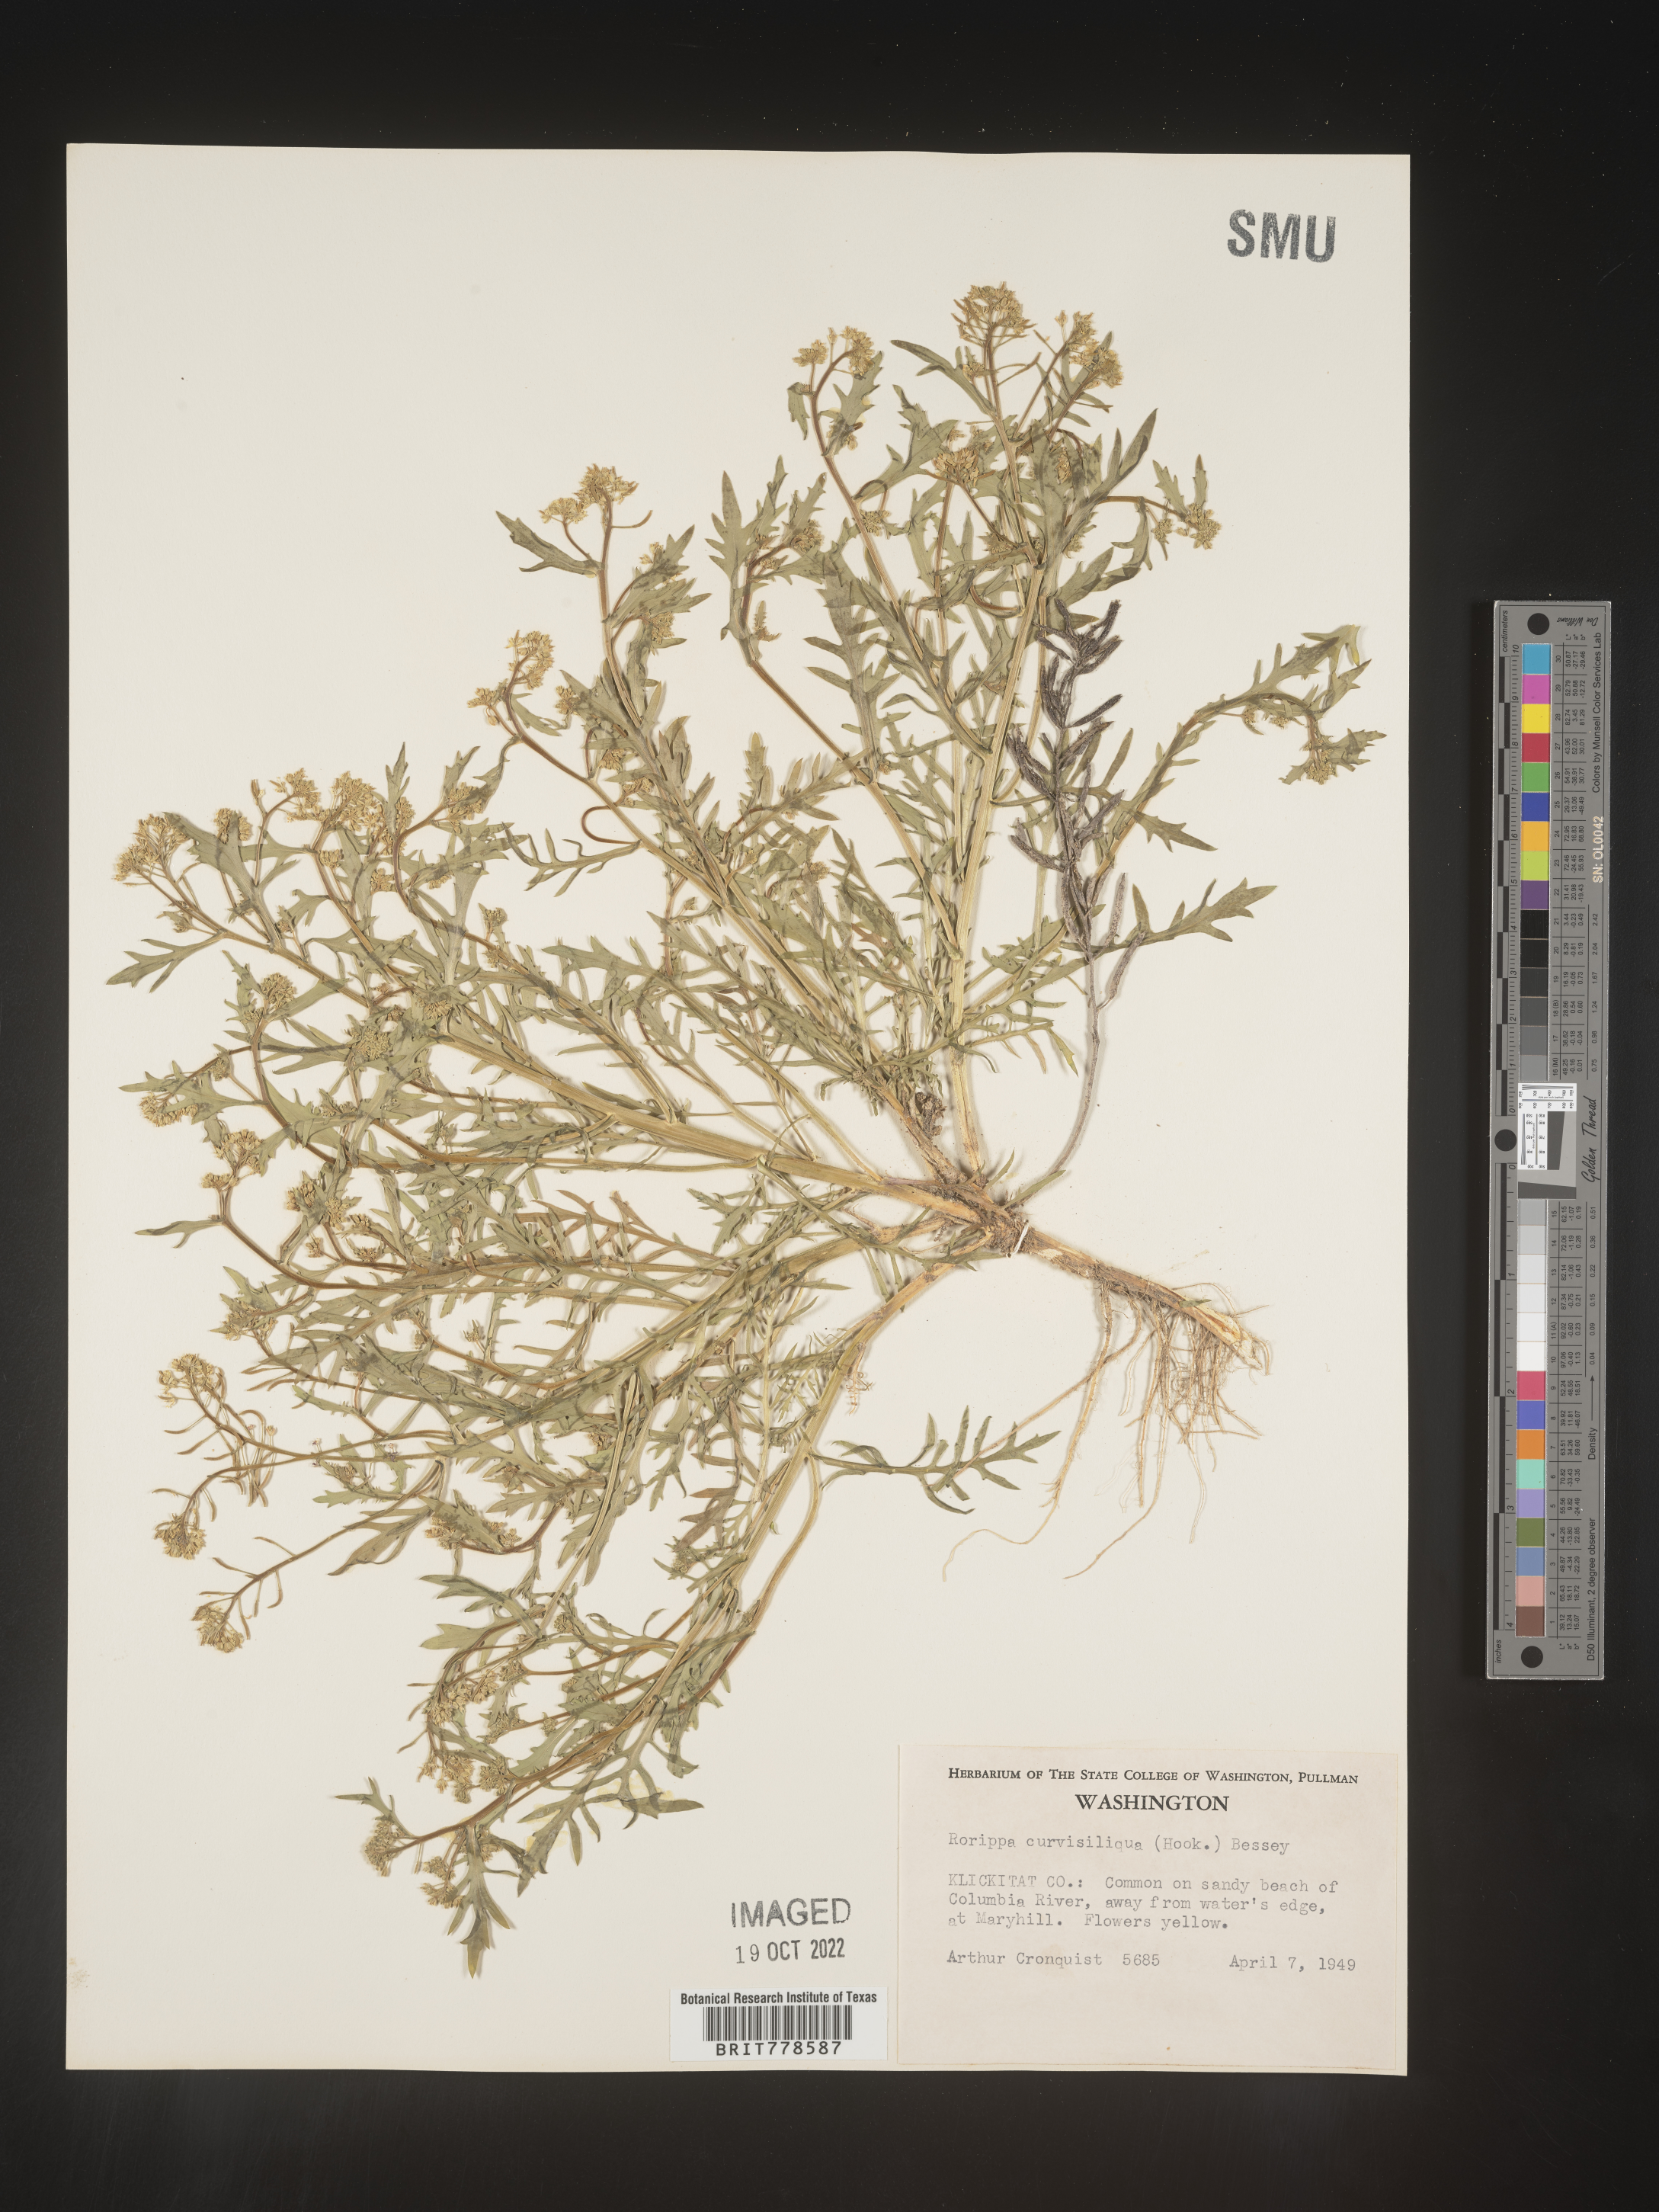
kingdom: Plantae
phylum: Tracheophyta
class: Magnoliopsida
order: Brassicales
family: Brassicaceae
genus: Rorippa
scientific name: Rorippa
